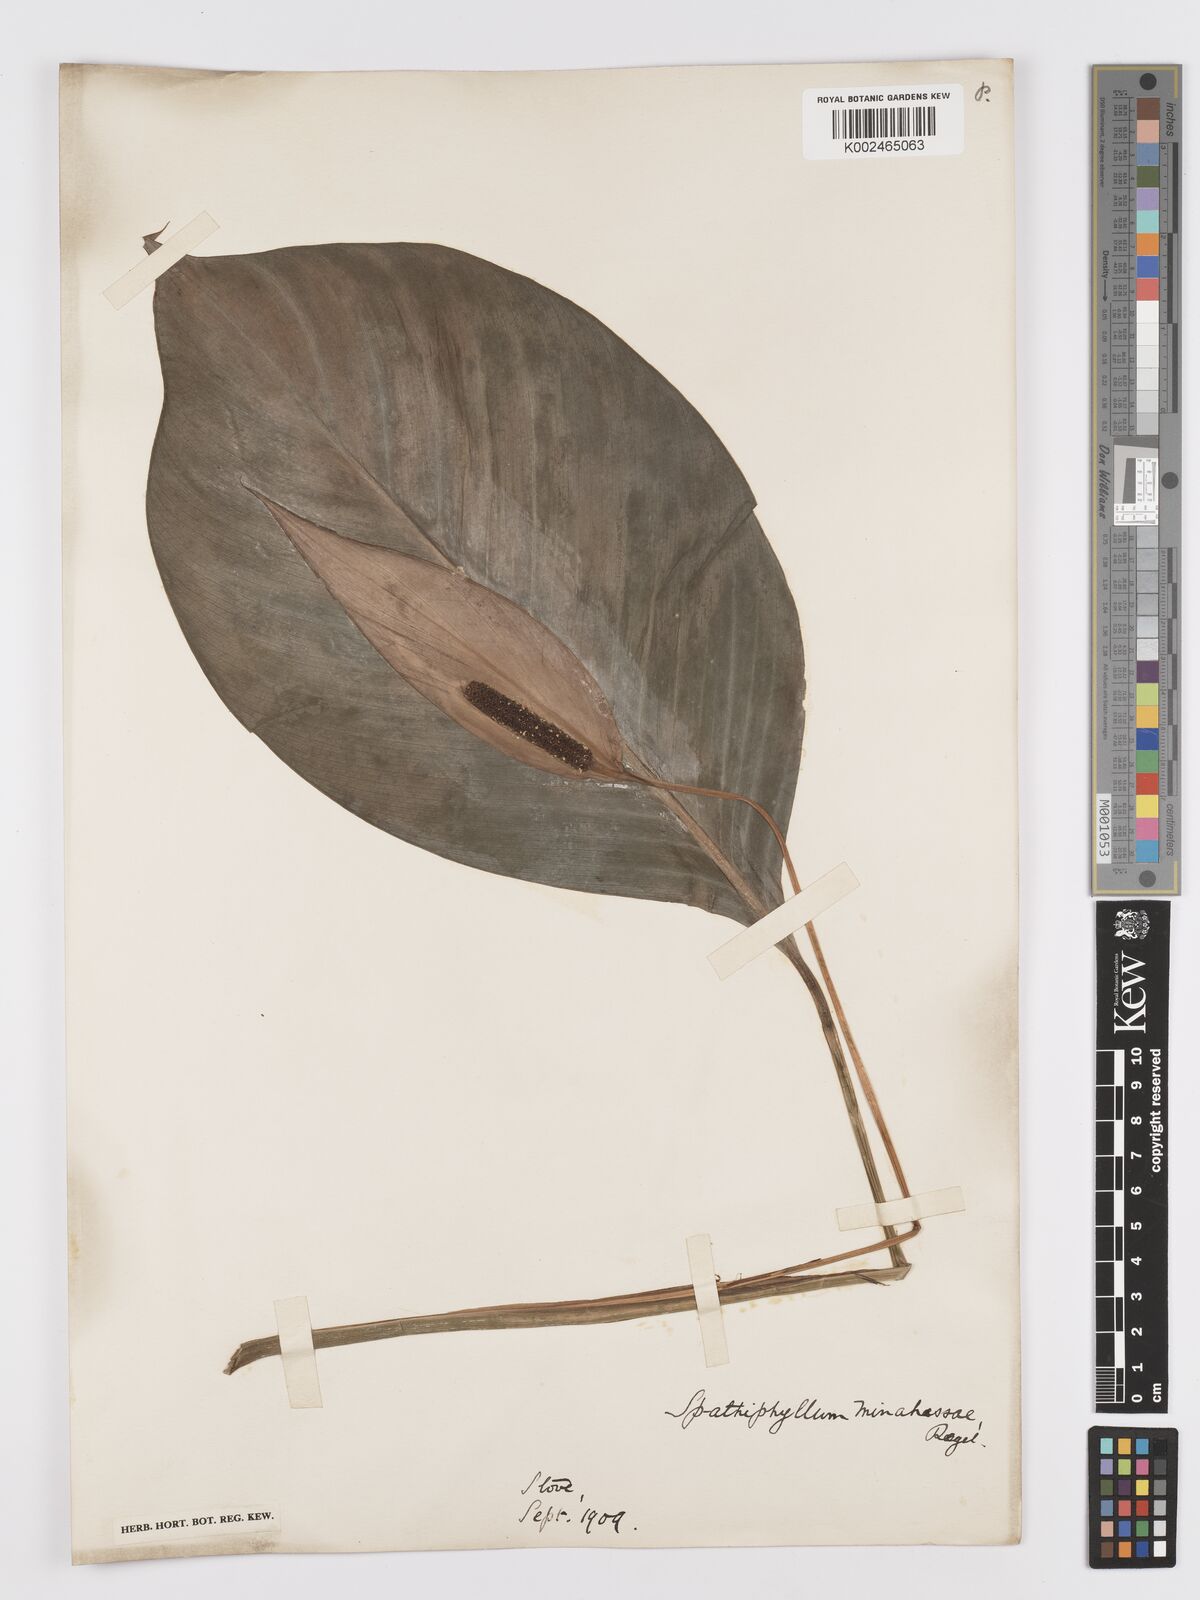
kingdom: Plantae
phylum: Tracheophyta
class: Liliopsida
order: Alismatales
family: Araceae
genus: Spathiphyllum
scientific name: Spathiphyllum commutatum
